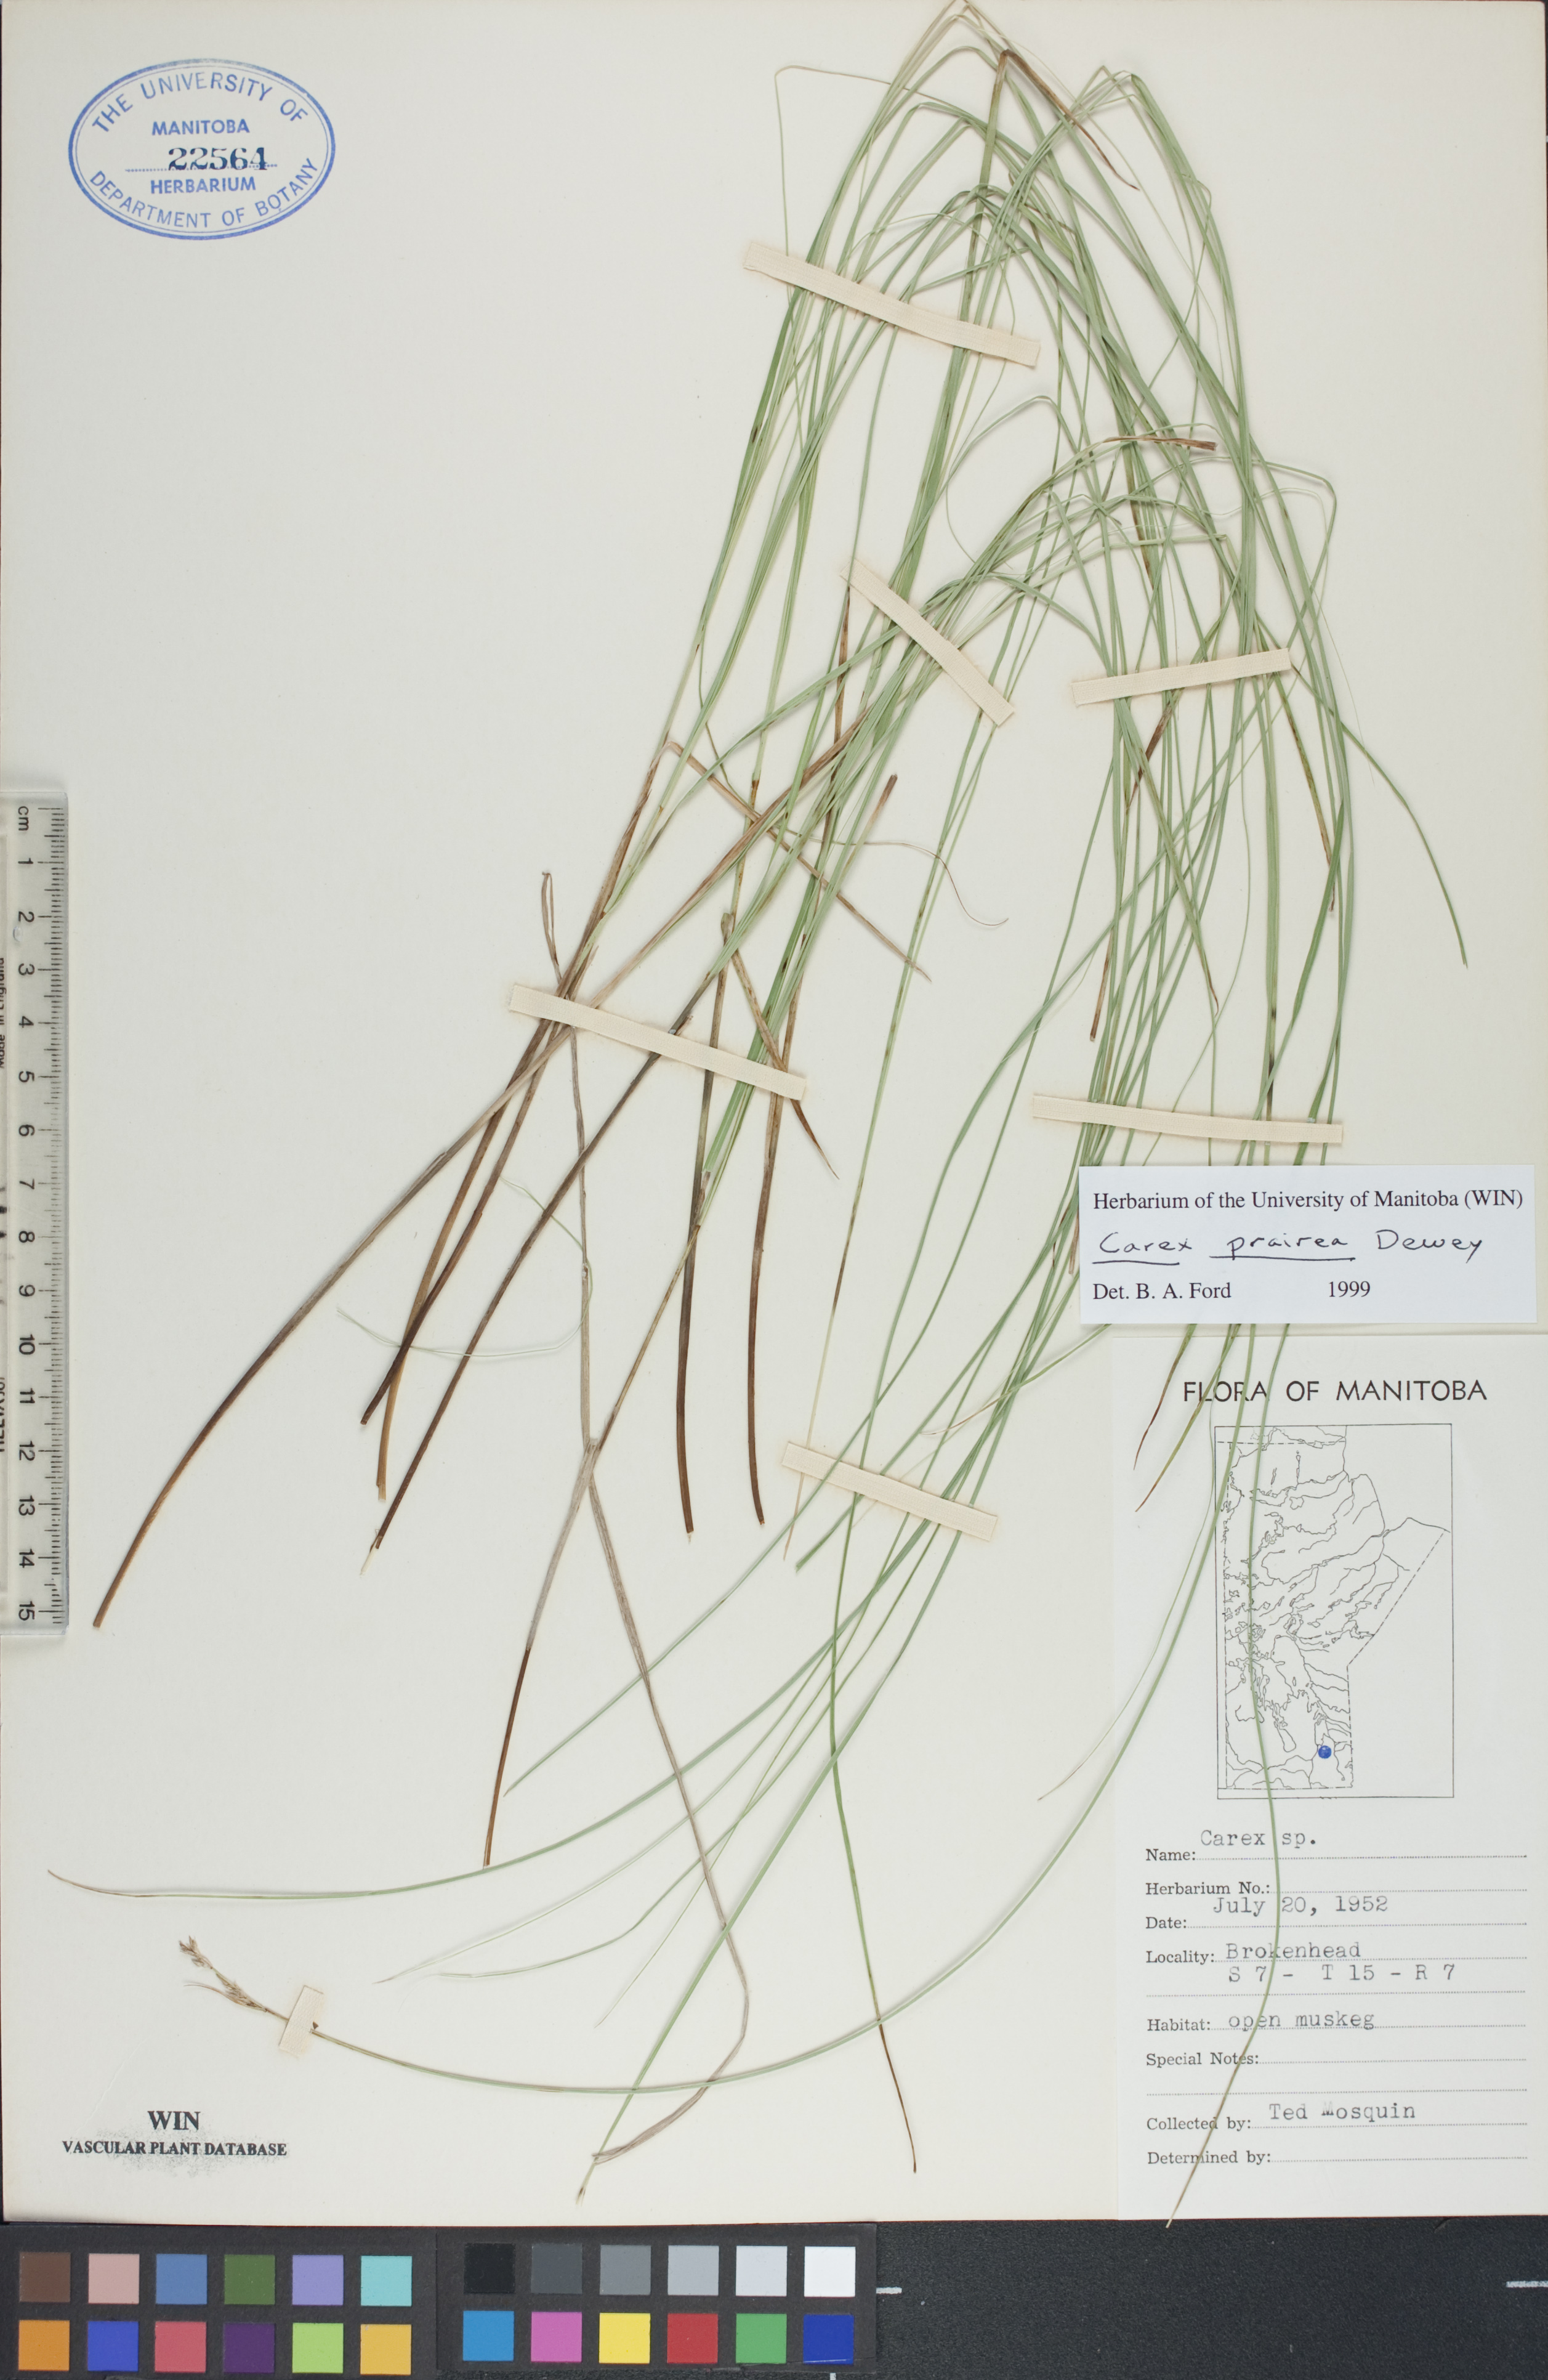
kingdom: Plantae
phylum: Tracheophyta
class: Liliopsida
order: Poales
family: Cyperaceae
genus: Carex
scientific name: Carex prairea
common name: Prairie sedge
